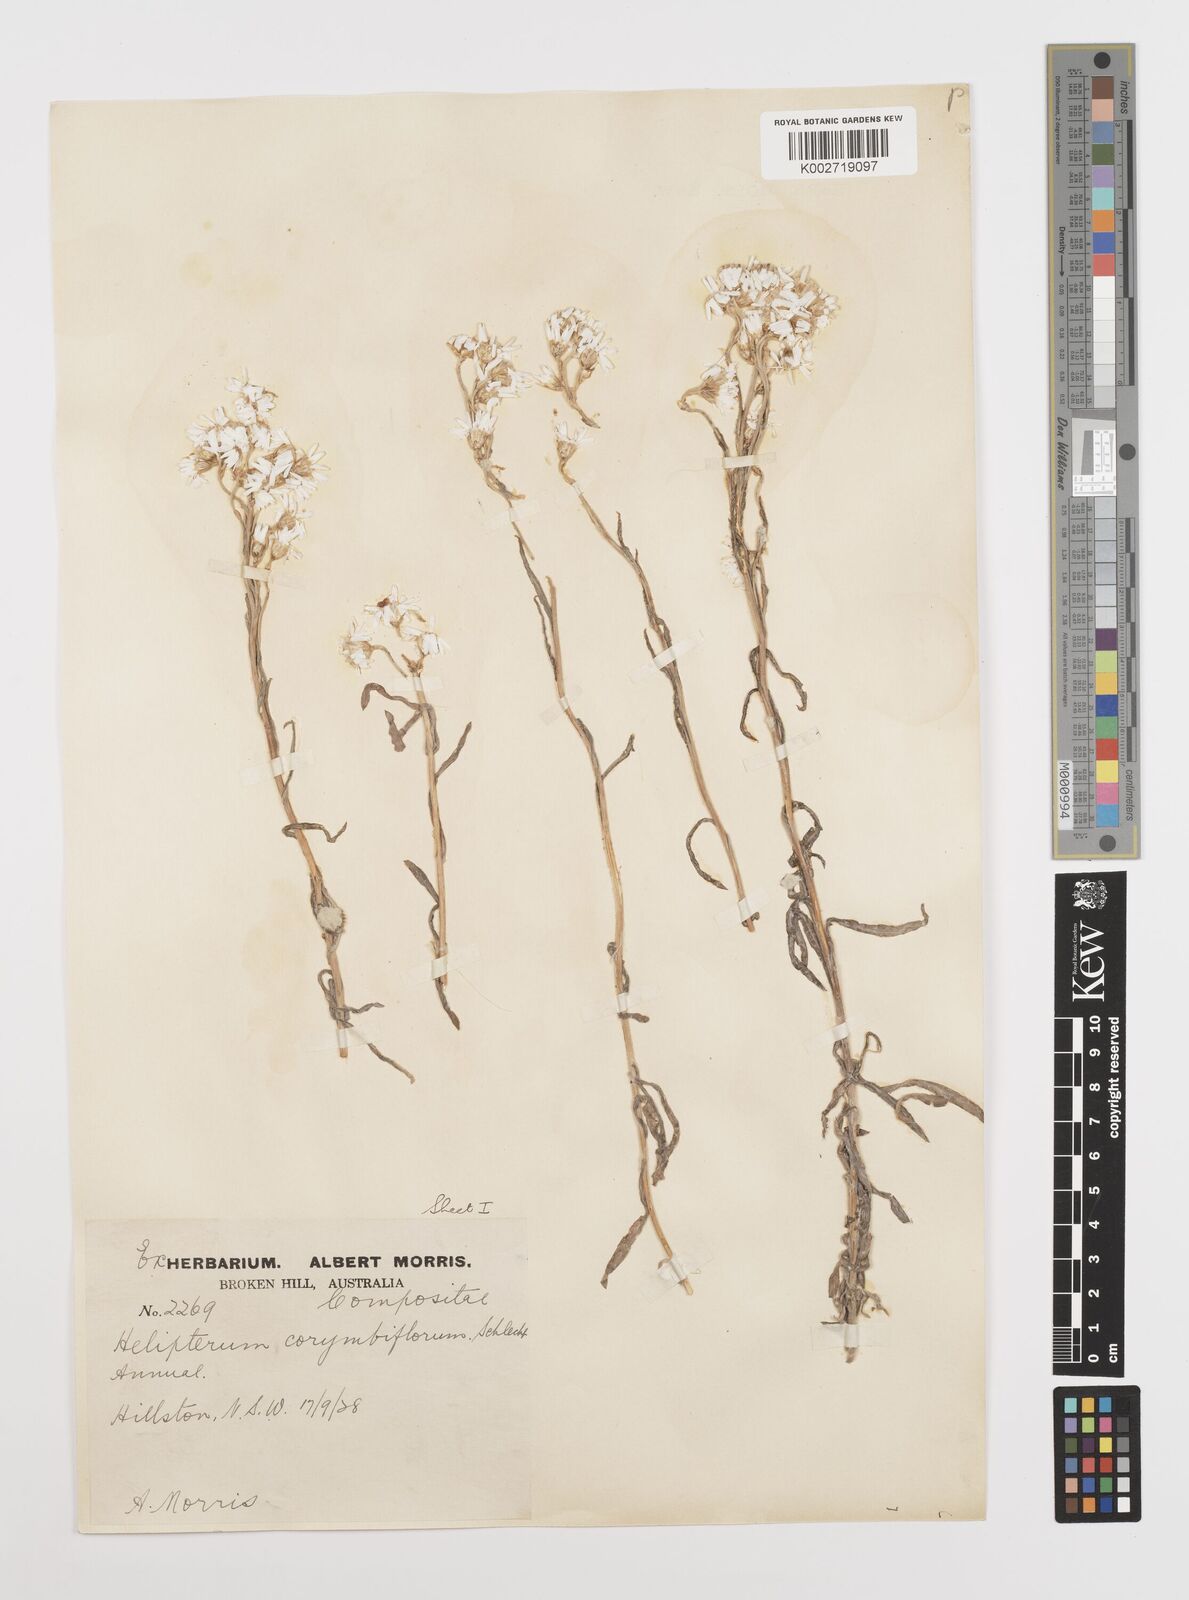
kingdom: Plantae
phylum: Tracheophyta
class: Magnoliopsida
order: Asterales
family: Asteraceae
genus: Rhodanthe
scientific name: Rhodanthe corymbiflora
